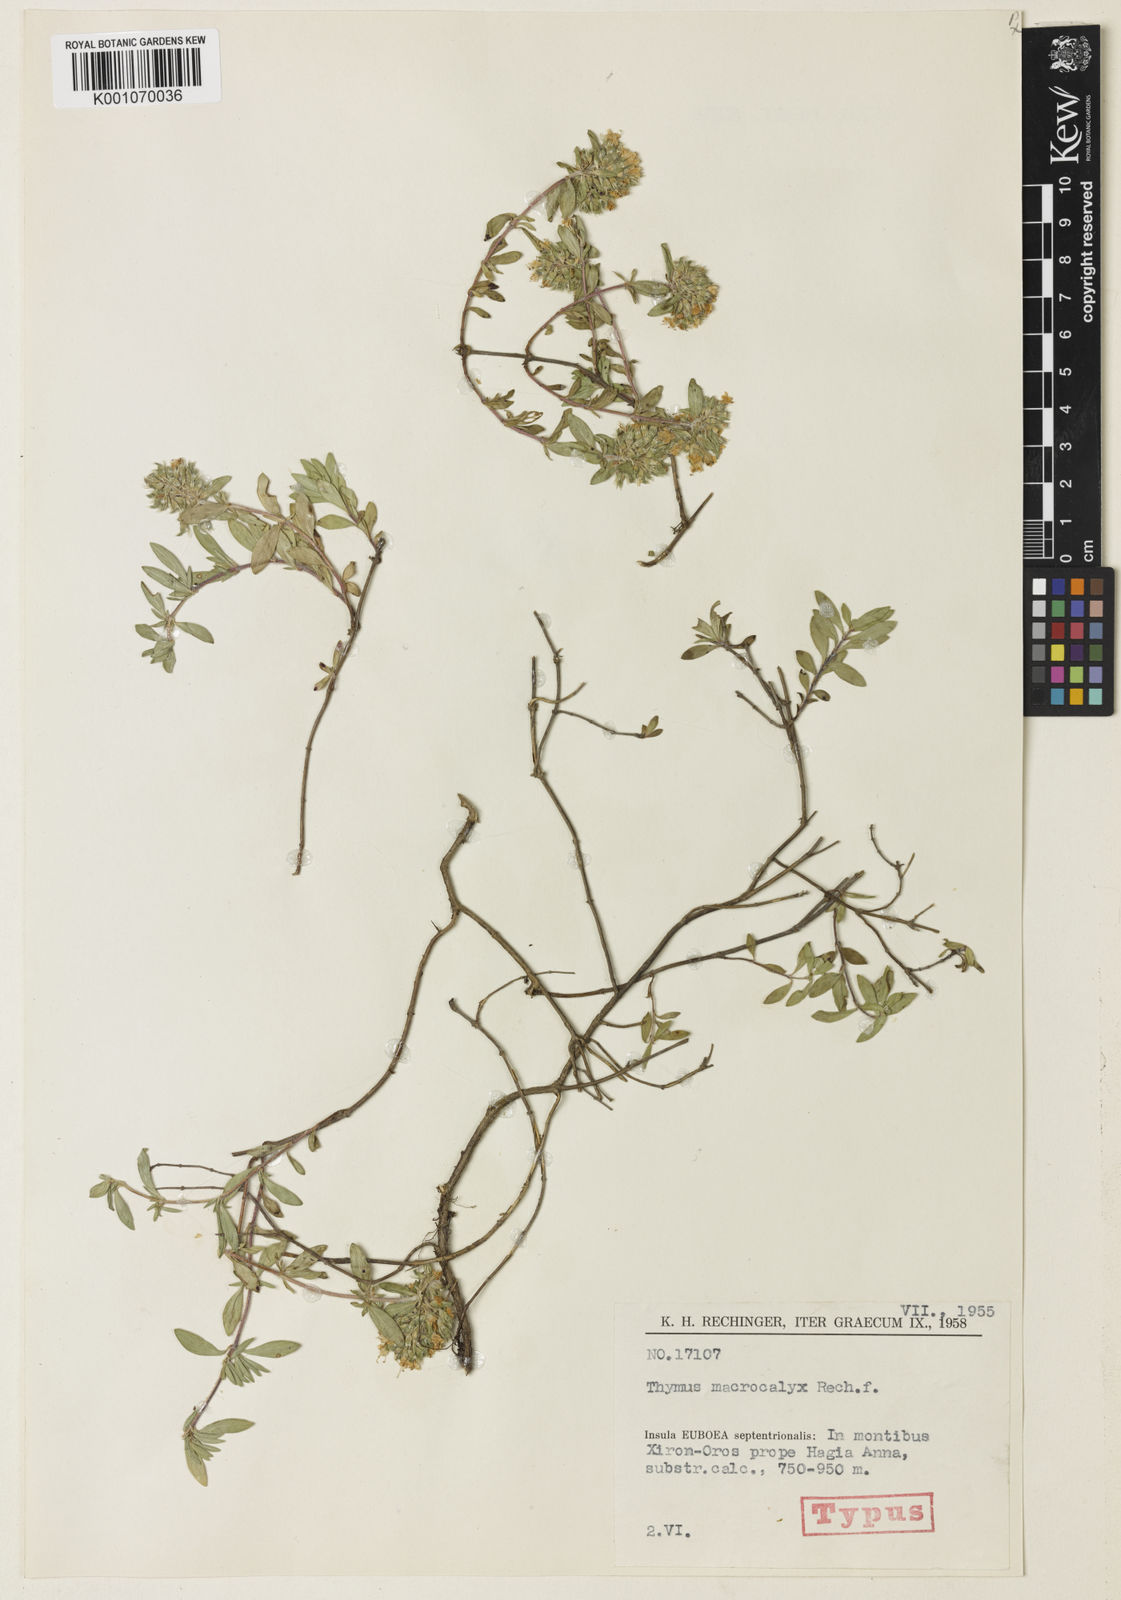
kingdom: Plantae
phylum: Tracheophyta
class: Magnoliopsida
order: Lamiales
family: Lamiaceae
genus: Thymus
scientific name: Thymus macrocalyx
